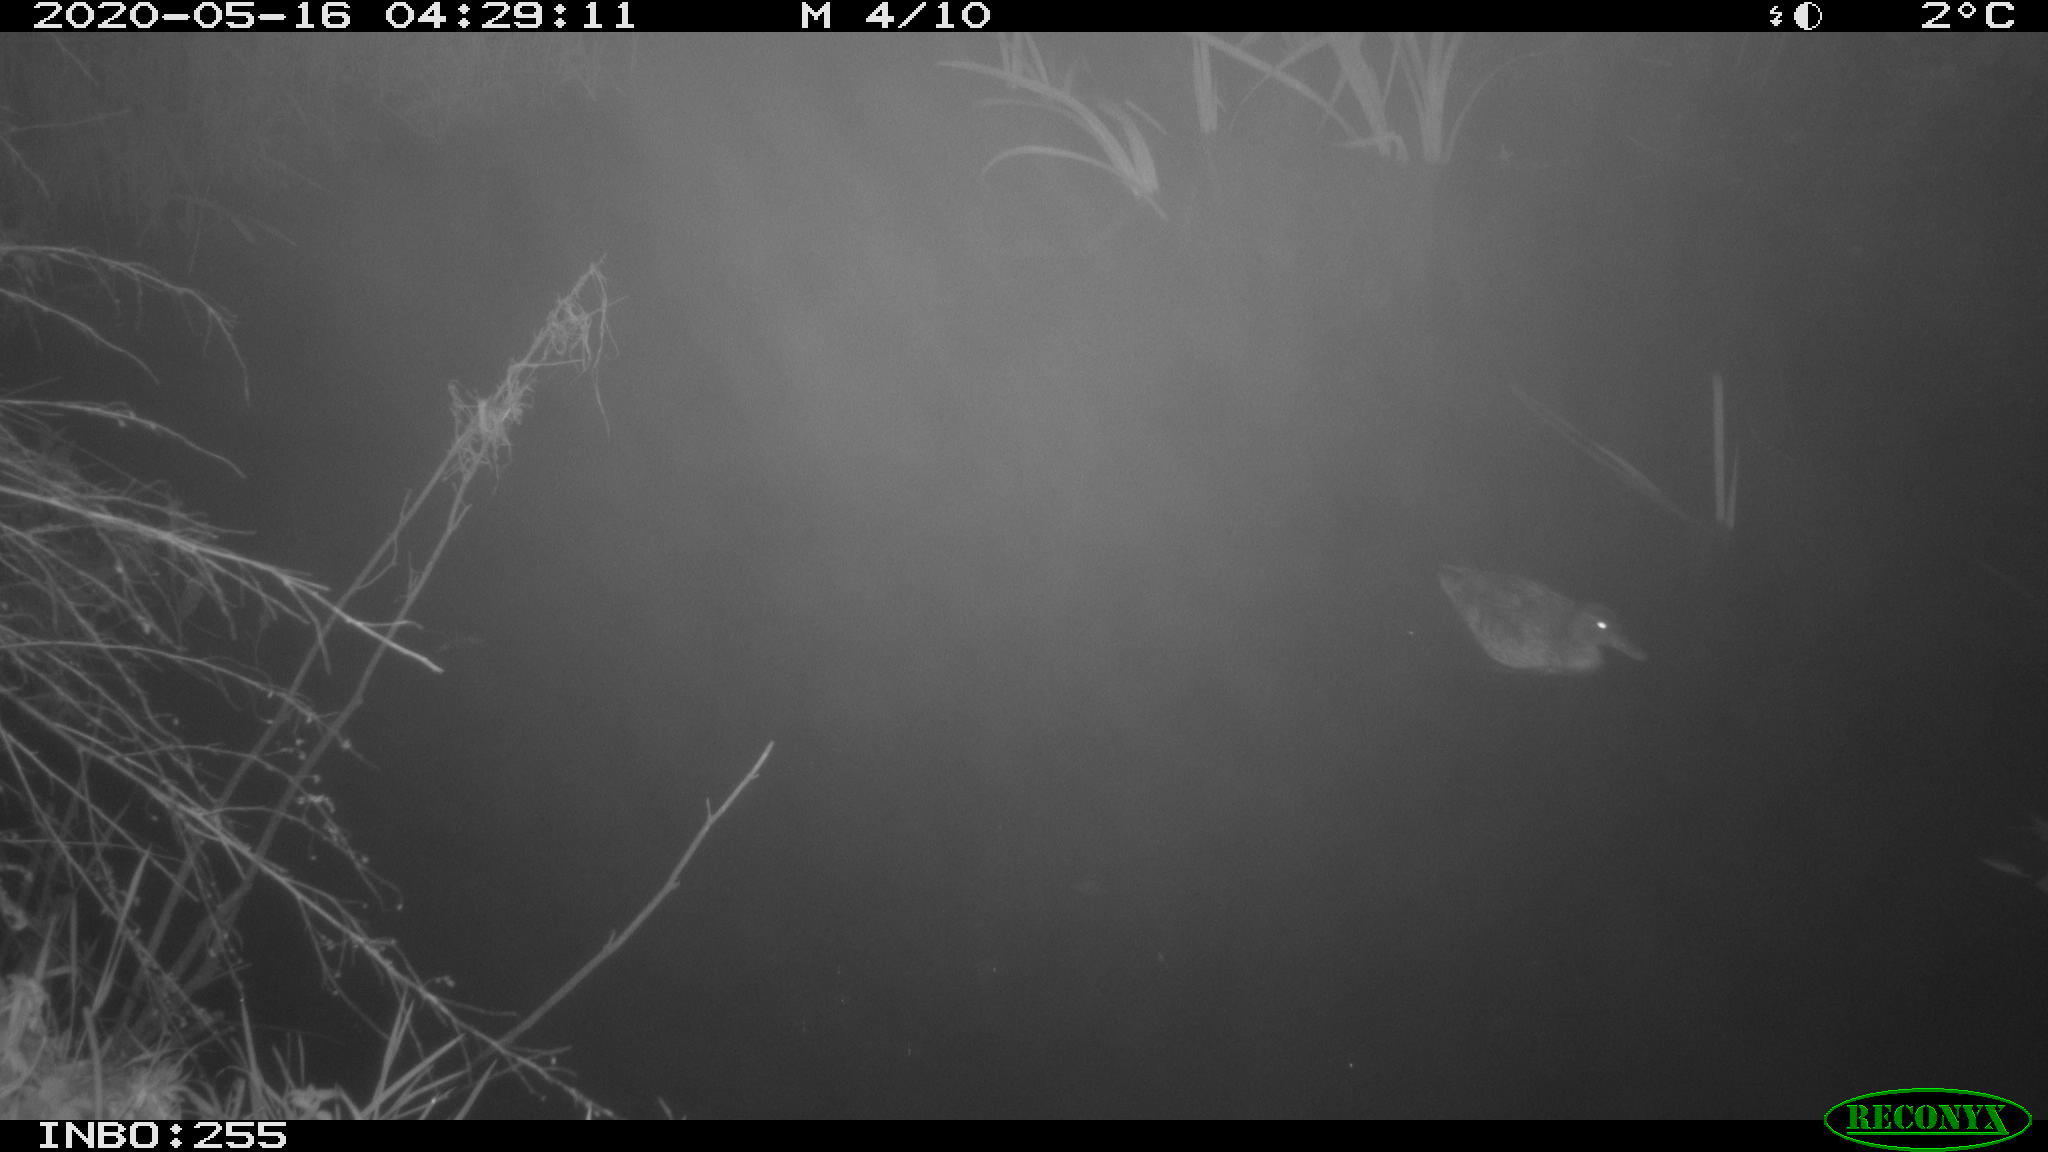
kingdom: Animalia
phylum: Chordata
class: Aves
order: Anseriformes
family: Anatidae
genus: Anas
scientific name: Anas platyrhynchos
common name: Mallard
